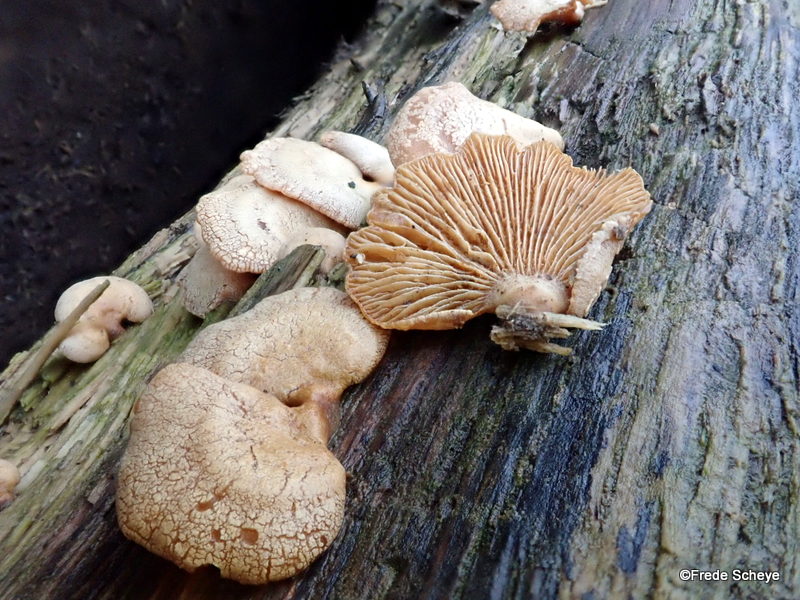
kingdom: Fungi
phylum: Basidiomycota
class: Agaricomycetes
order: Agaricales
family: Mycenaceae
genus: Panellus
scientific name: Panellus stipticus
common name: kliddet epaulethat
